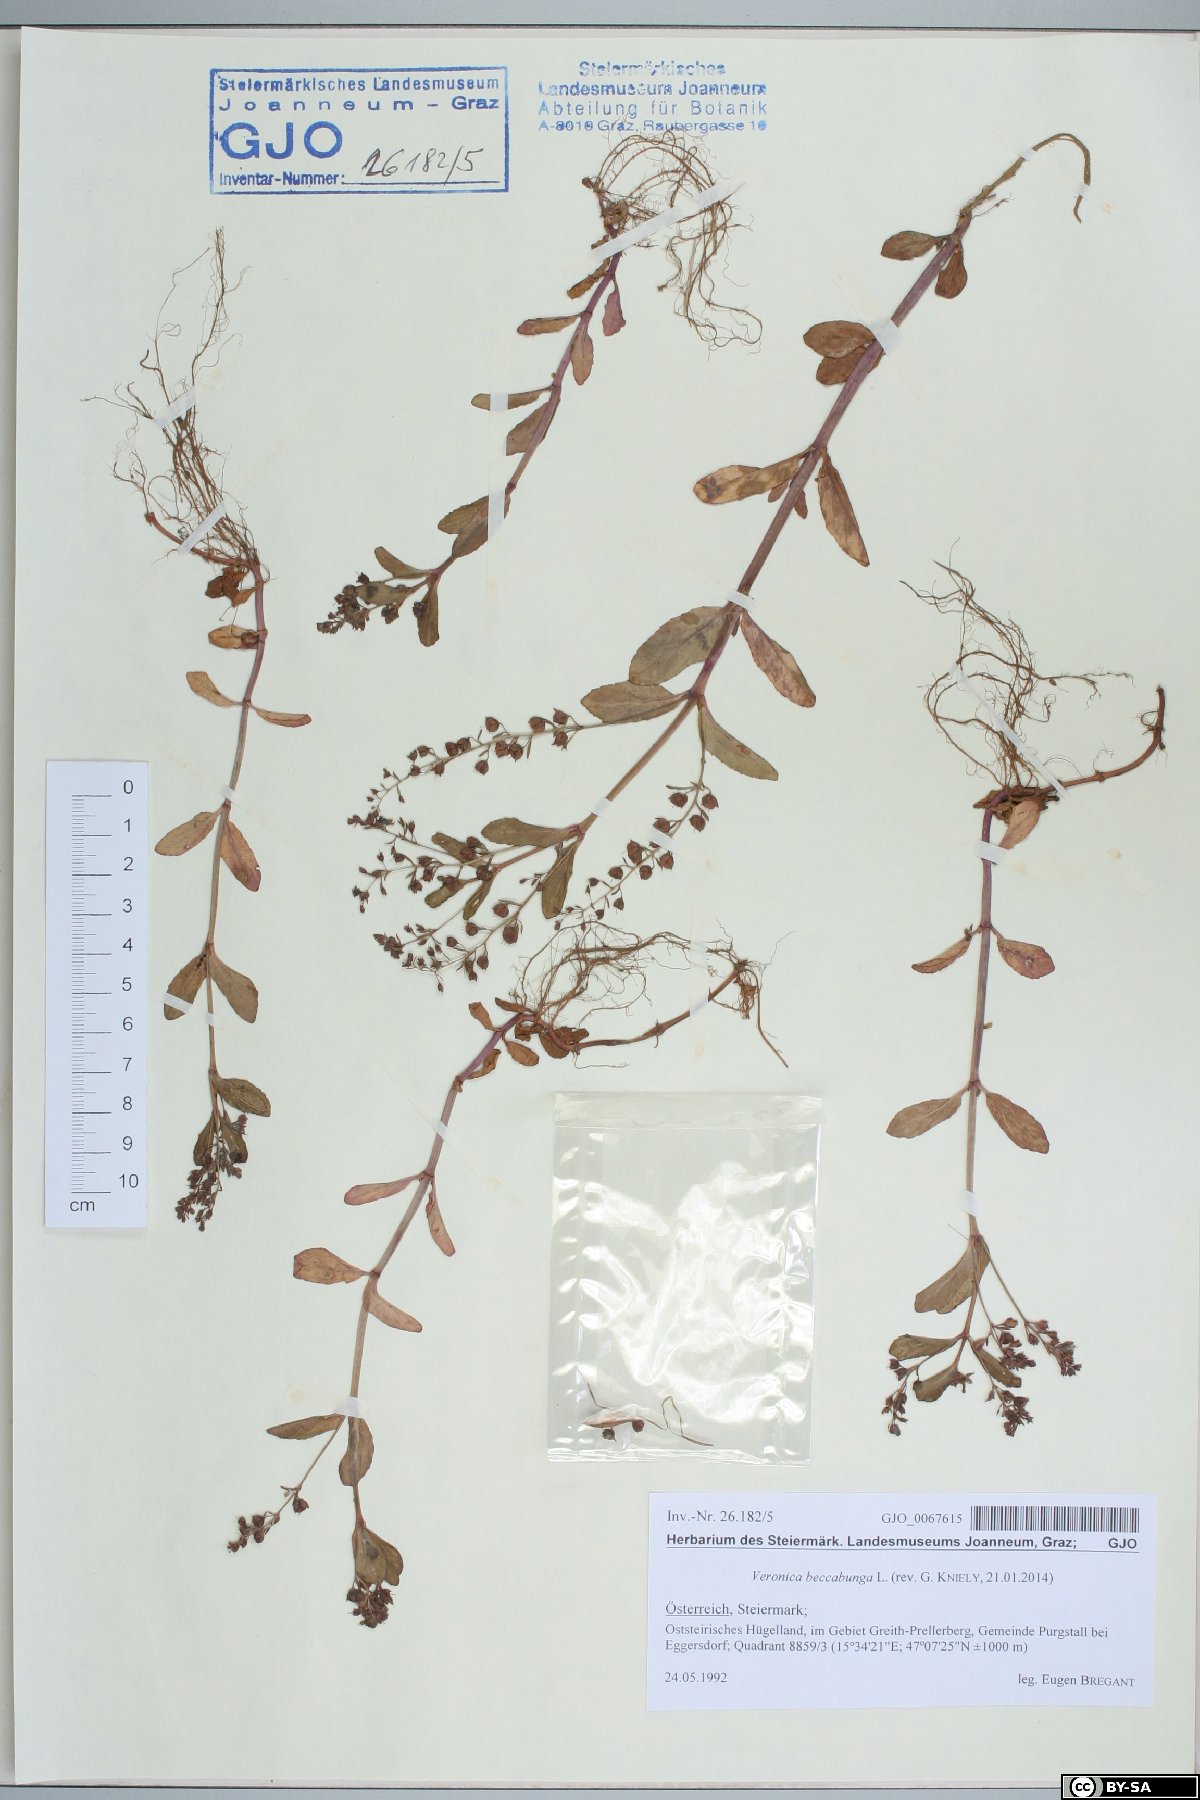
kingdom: Plantae
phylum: Tracheophyta
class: Magnoliopsida
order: Lamiales
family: Plantaginaceae
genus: Veronica
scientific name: Veronica beccabunga
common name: Brooklime
